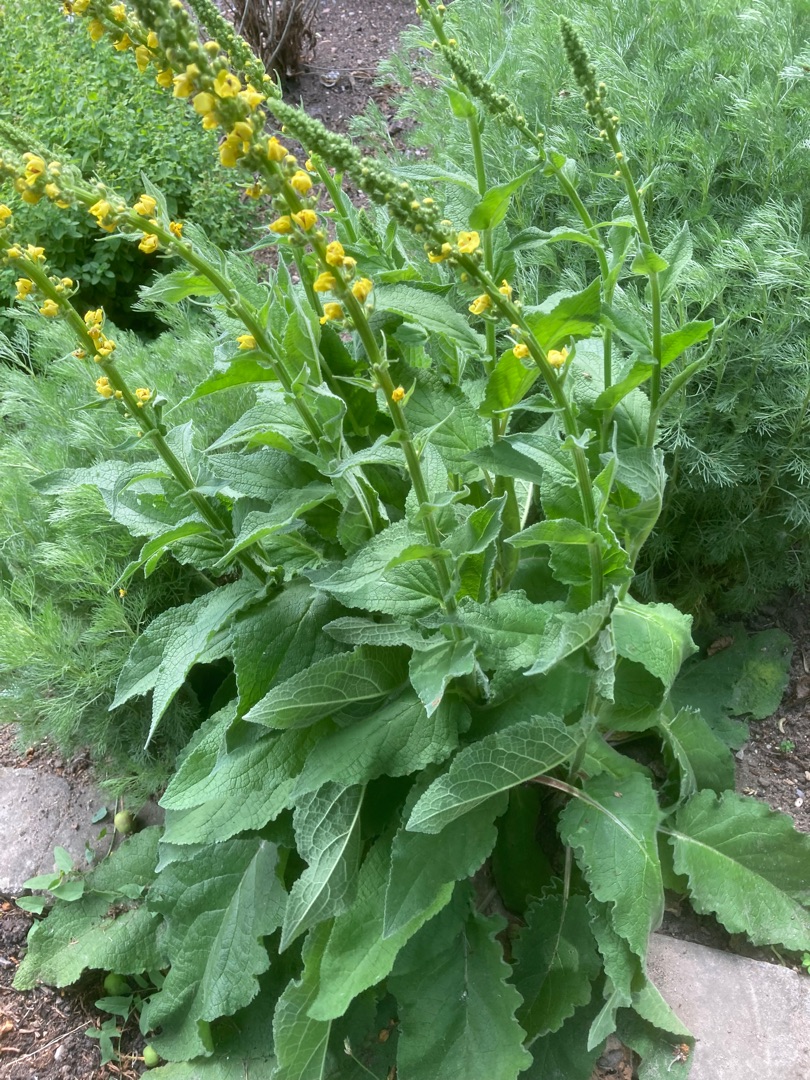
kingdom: Plantae
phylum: Tracheophyta
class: Magnoliopsida
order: Lamiales
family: Scrophulariaceae
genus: Verbascum
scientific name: Verbascum nigrum
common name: Mørk kongelys
